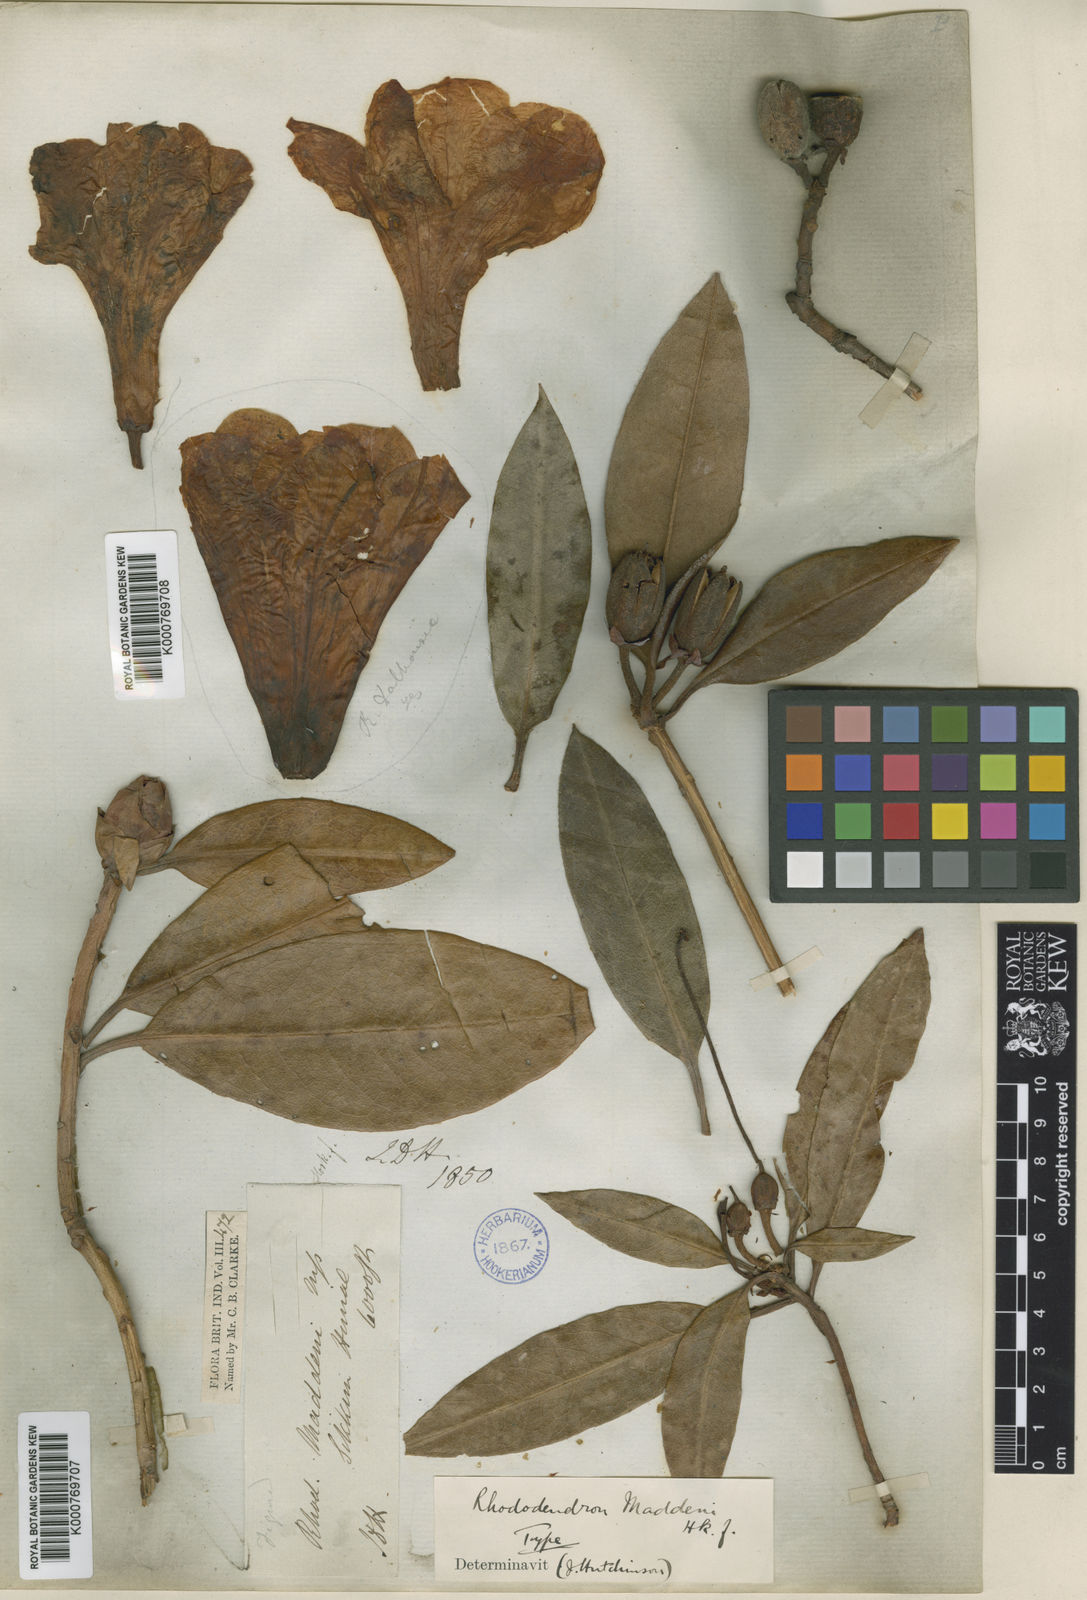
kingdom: Plantae
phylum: Tracheophyta
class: Magnoliopsida
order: Ericales
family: Ericaceae
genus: Rhododendron
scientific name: Rhododendron maddenii
